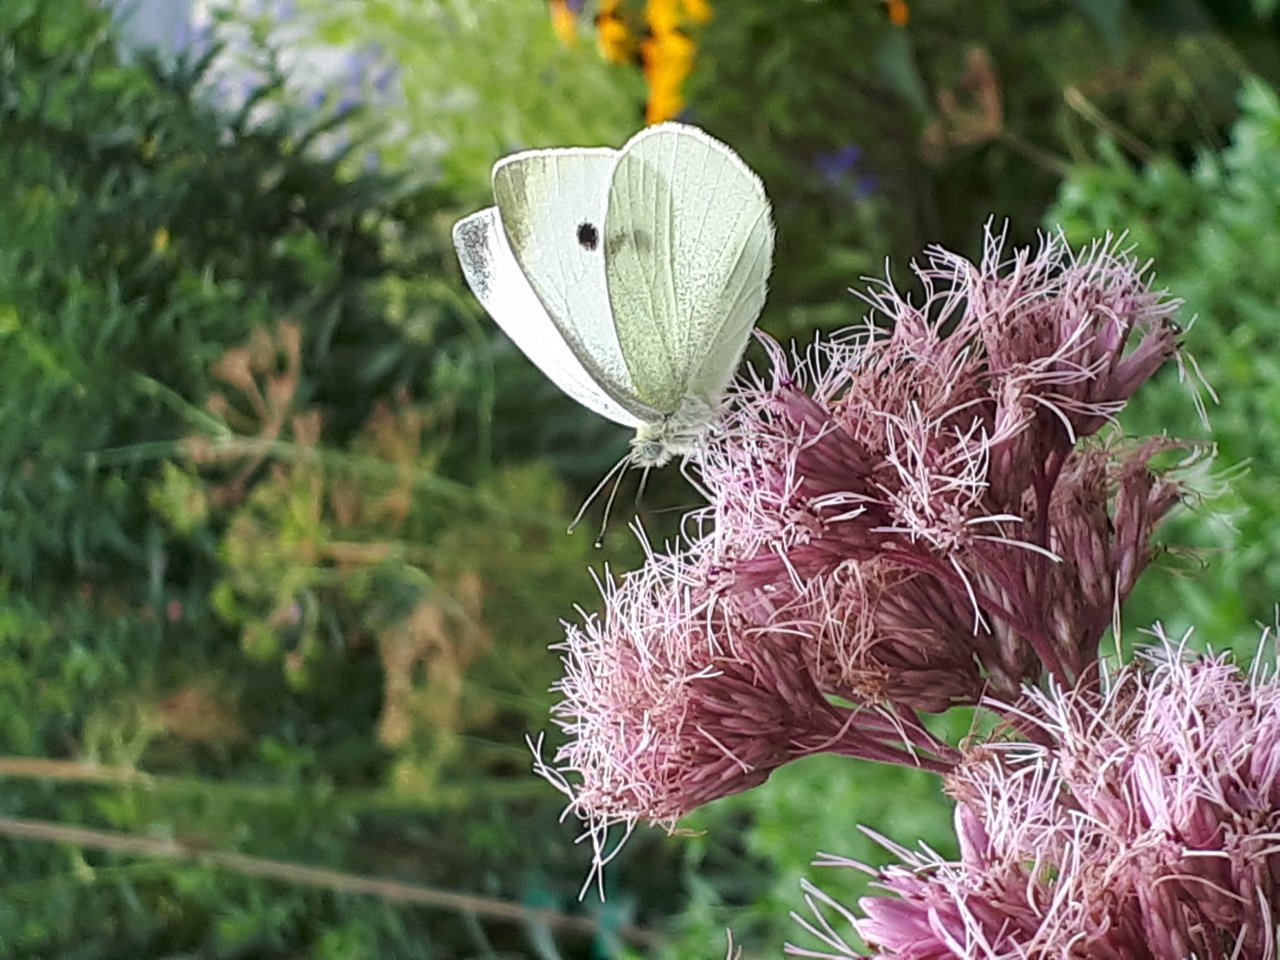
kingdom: Animalia
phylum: Arthropoda
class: Insecta
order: Lepidoptera
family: Pieridae
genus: Pieris
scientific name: Pieris rapae
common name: Cabbage White
